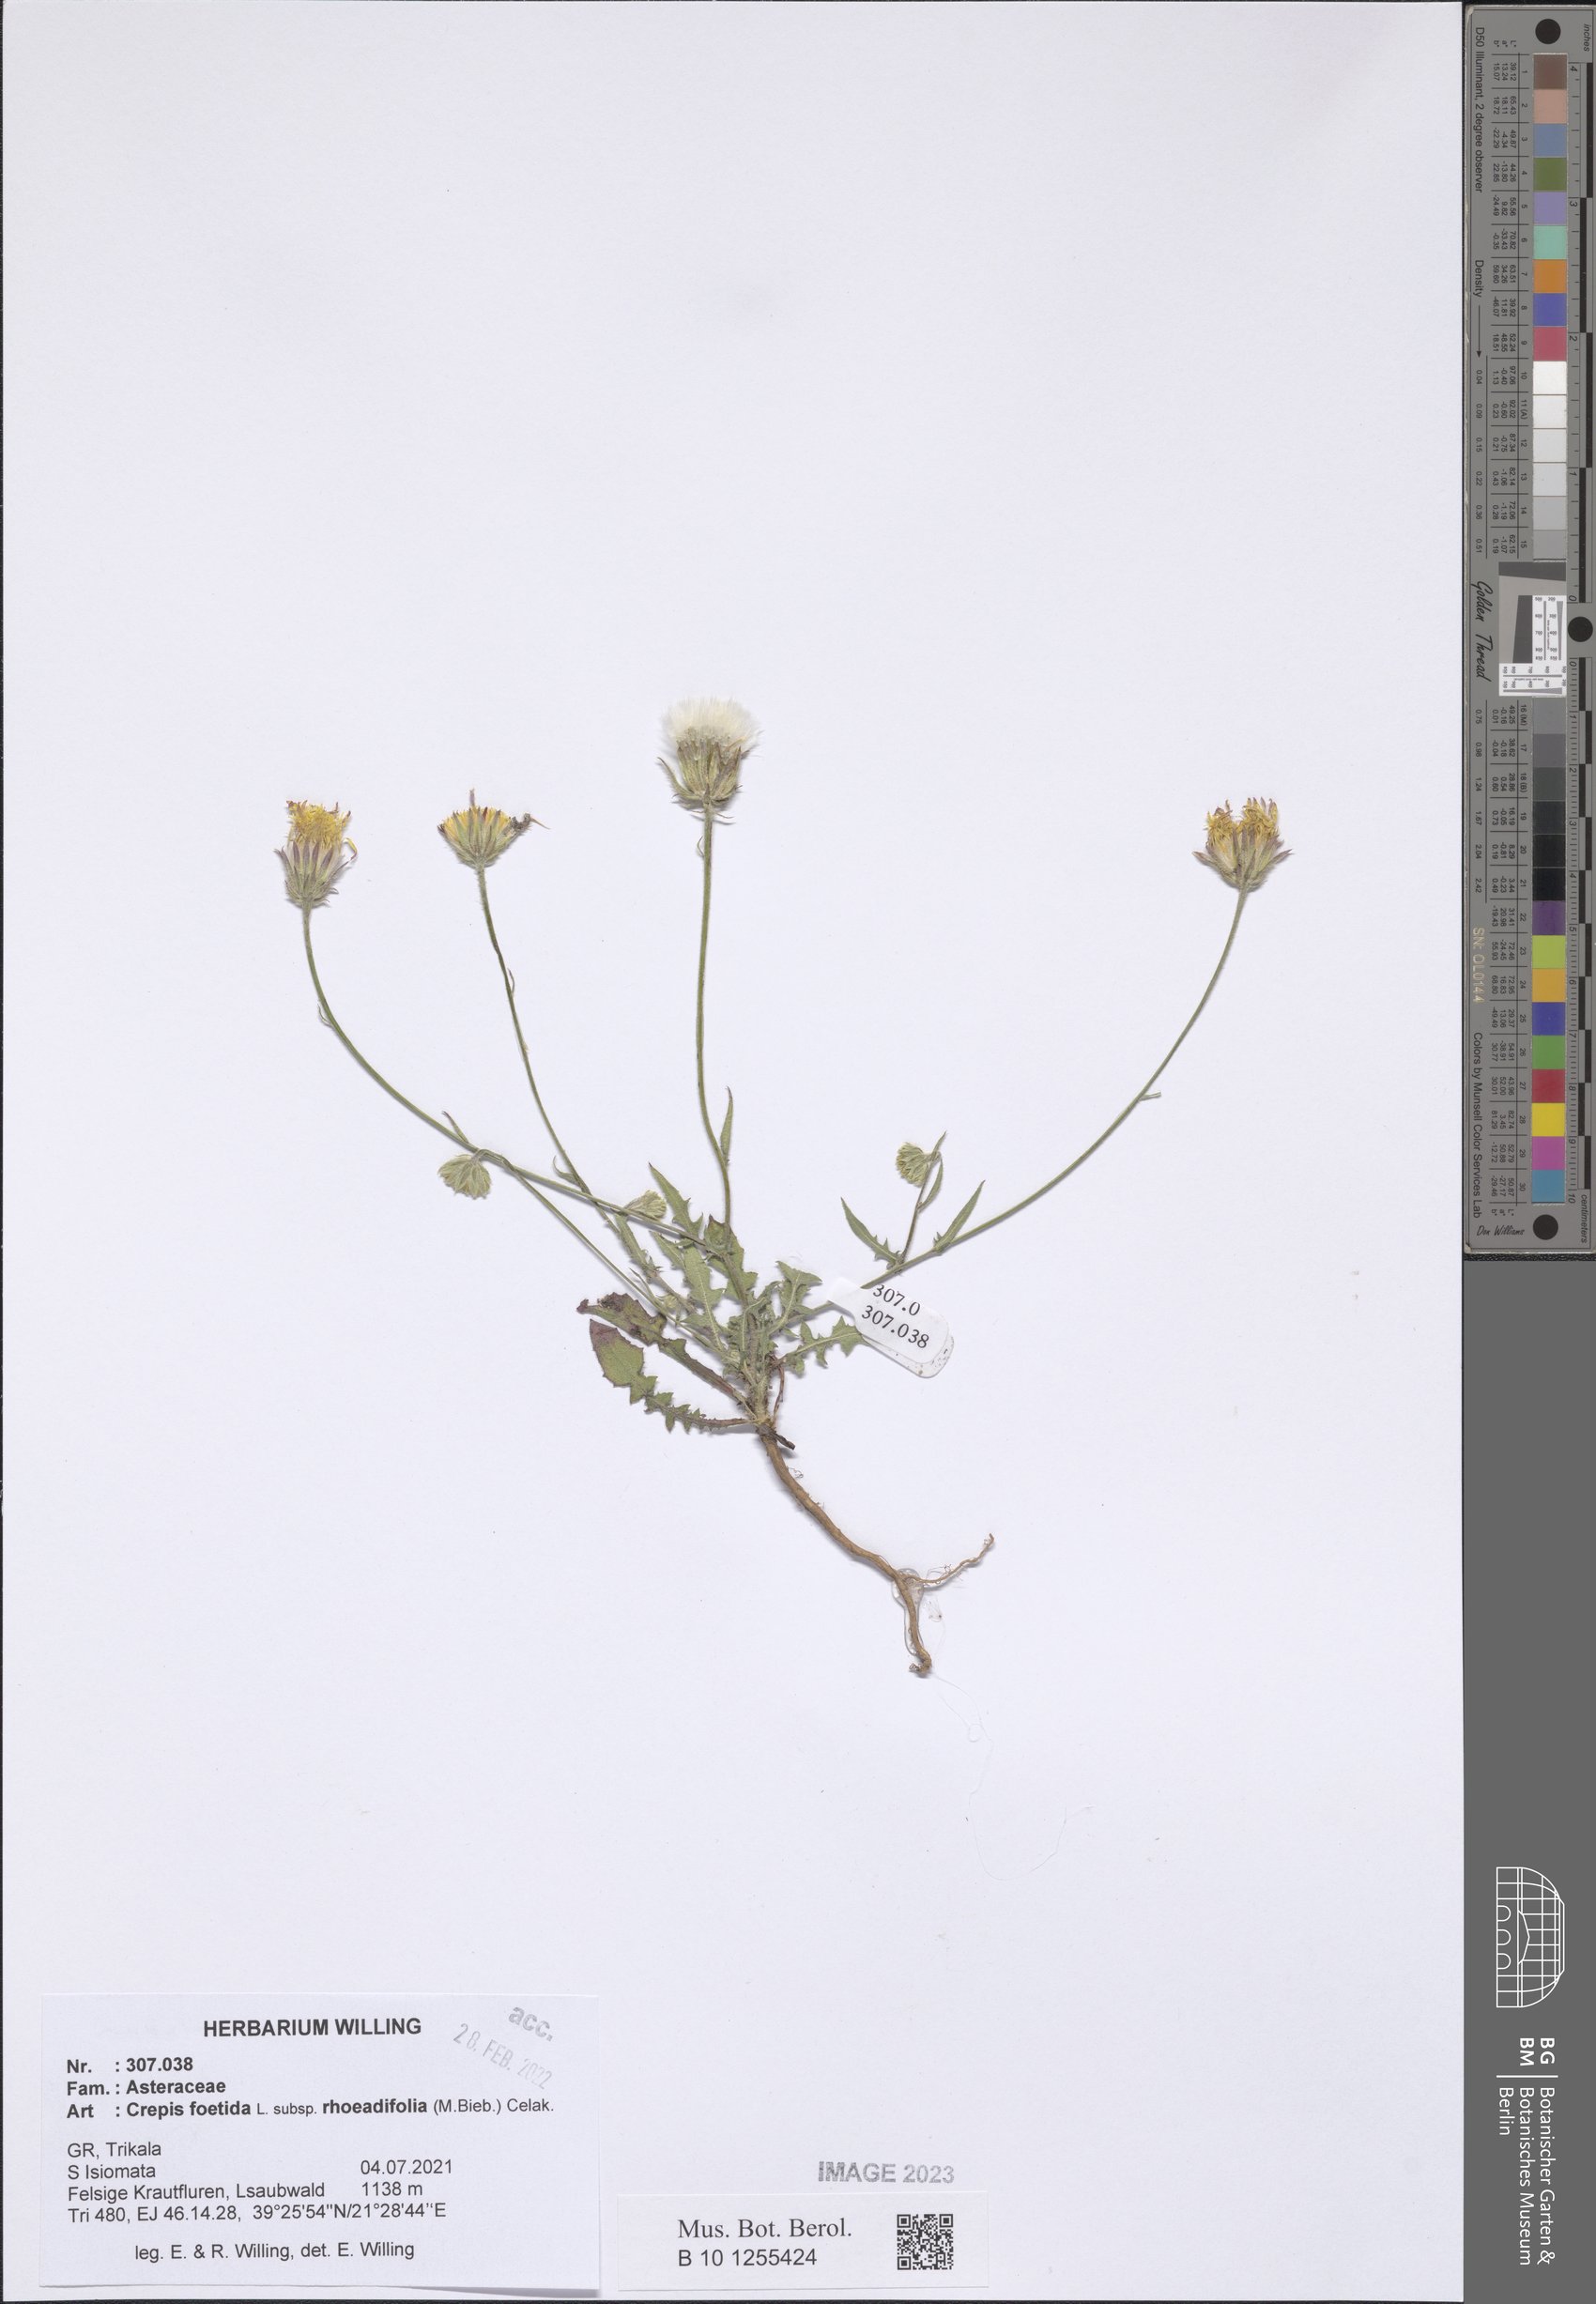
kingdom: Plantae
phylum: Tracheophyta
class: Magnoliopsida
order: Asterales
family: Asteraceae
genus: Crepis
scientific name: Crepis foetida
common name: Stinking hawk's-beard
